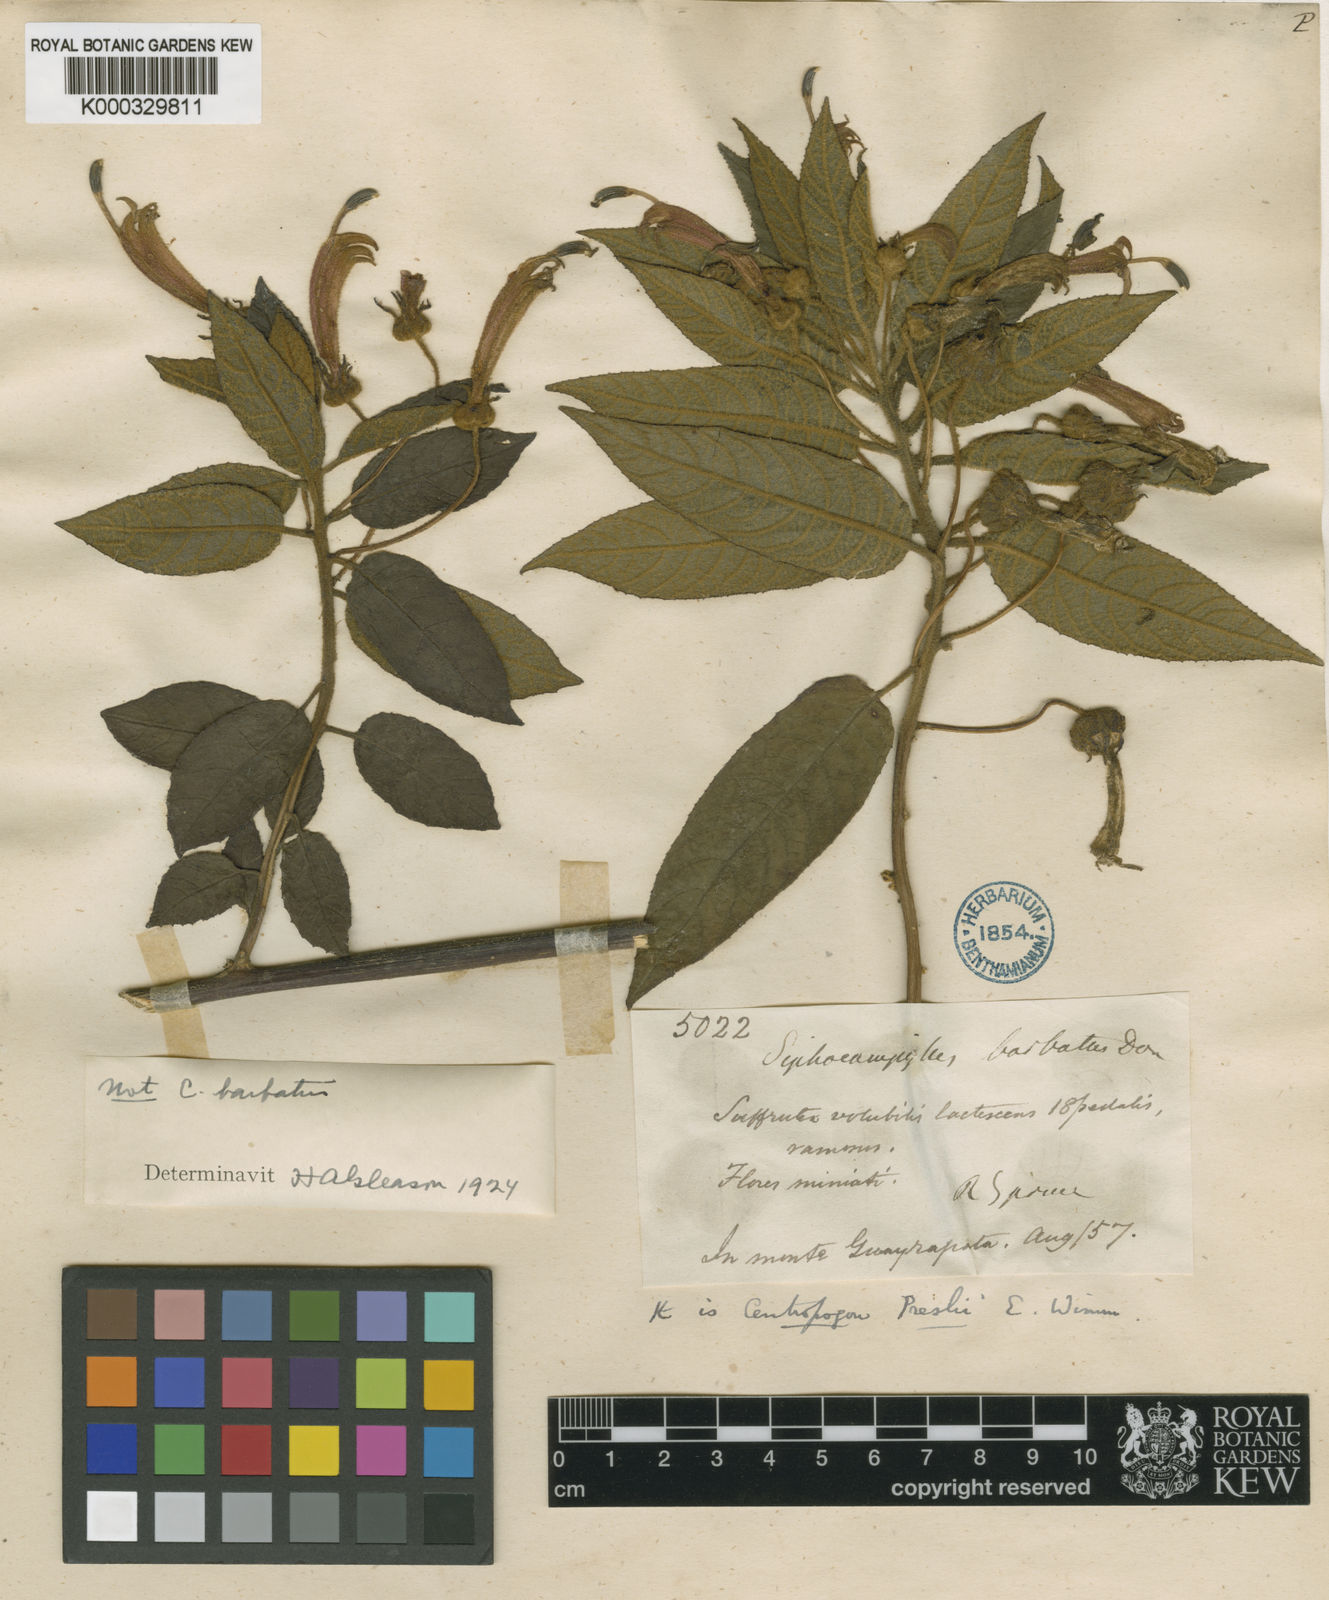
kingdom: Plantae
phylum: Tracheophyta
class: Magnoliopsida
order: Asterales
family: Campanulaceae
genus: Centropogon
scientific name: Centropogon preslii
